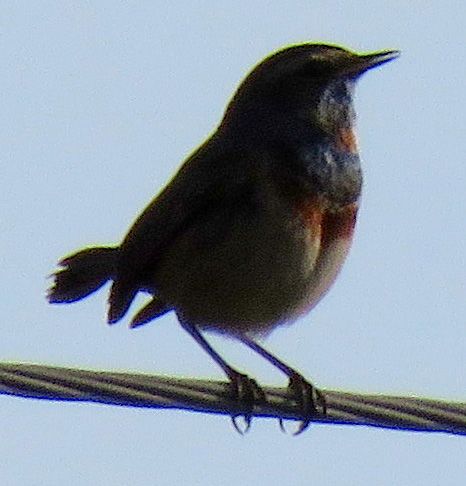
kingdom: Animalia
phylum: Chordata
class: Aves
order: Passeriformes
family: Muscicapidae
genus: Luscinia
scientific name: Luscinia svecica
